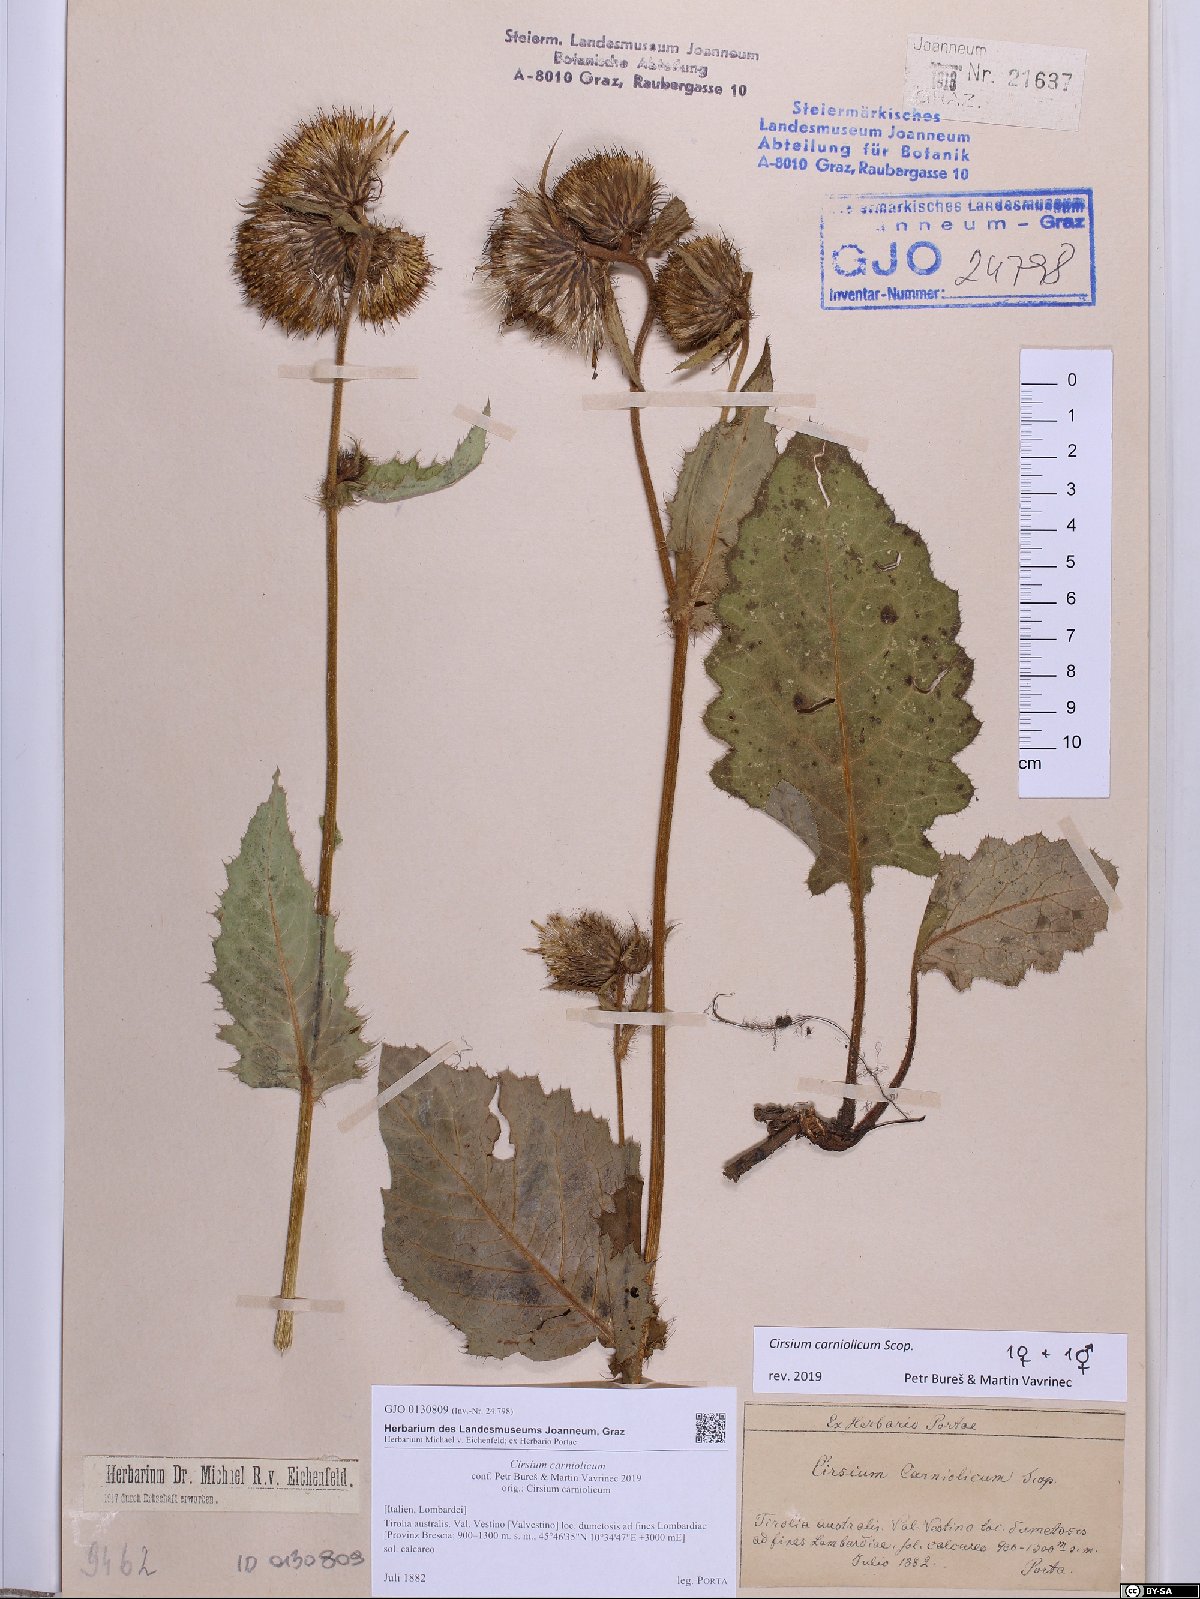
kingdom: Plantae
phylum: Tracheophyta
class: Magnoliopsida
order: Asterales
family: Asteraceae
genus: Cirsium
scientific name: Cirsium carniolicum
